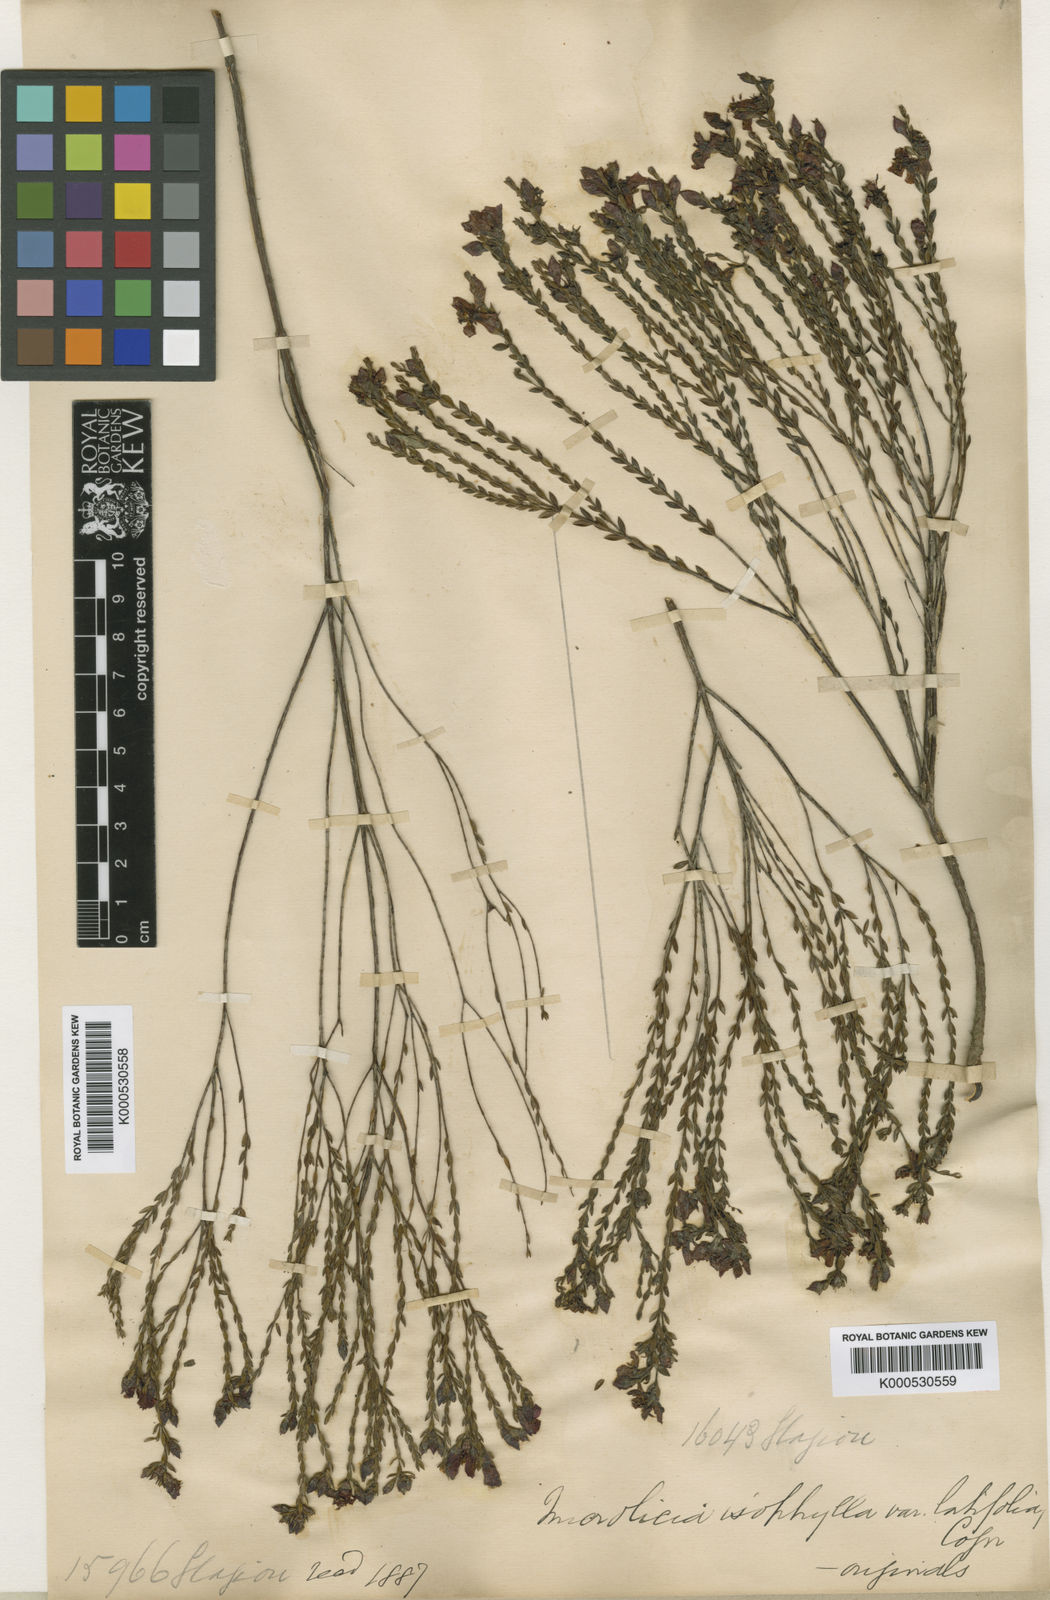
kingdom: Plantae
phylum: Tracheophyta
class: Magnoliopsida
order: Myrtales
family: Melastomataceae
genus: Microlicia
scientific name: Microlicia isophylla
